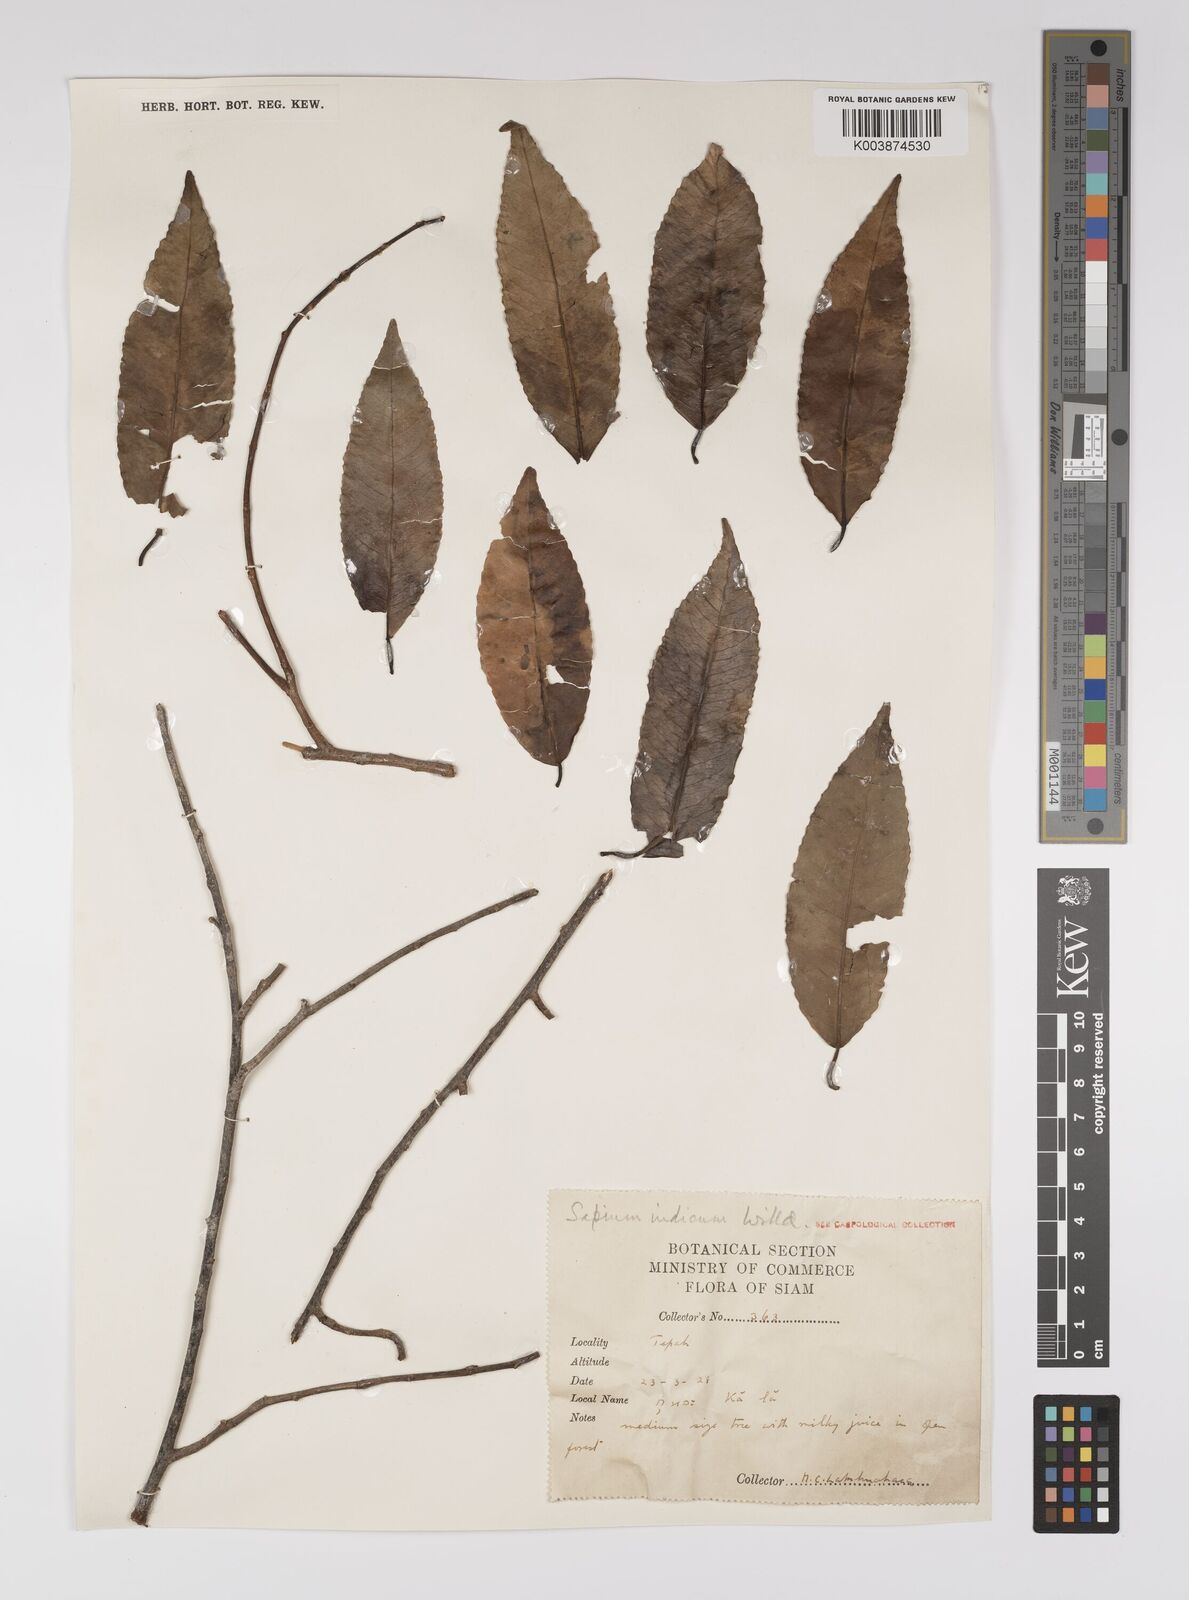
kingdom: Plantae
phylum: Tracheophyta
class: Magnoliopsida
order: Malpighiales
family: Euphorbiaceae
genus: Shirakiopsis
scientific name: Shirakiopsis indica
